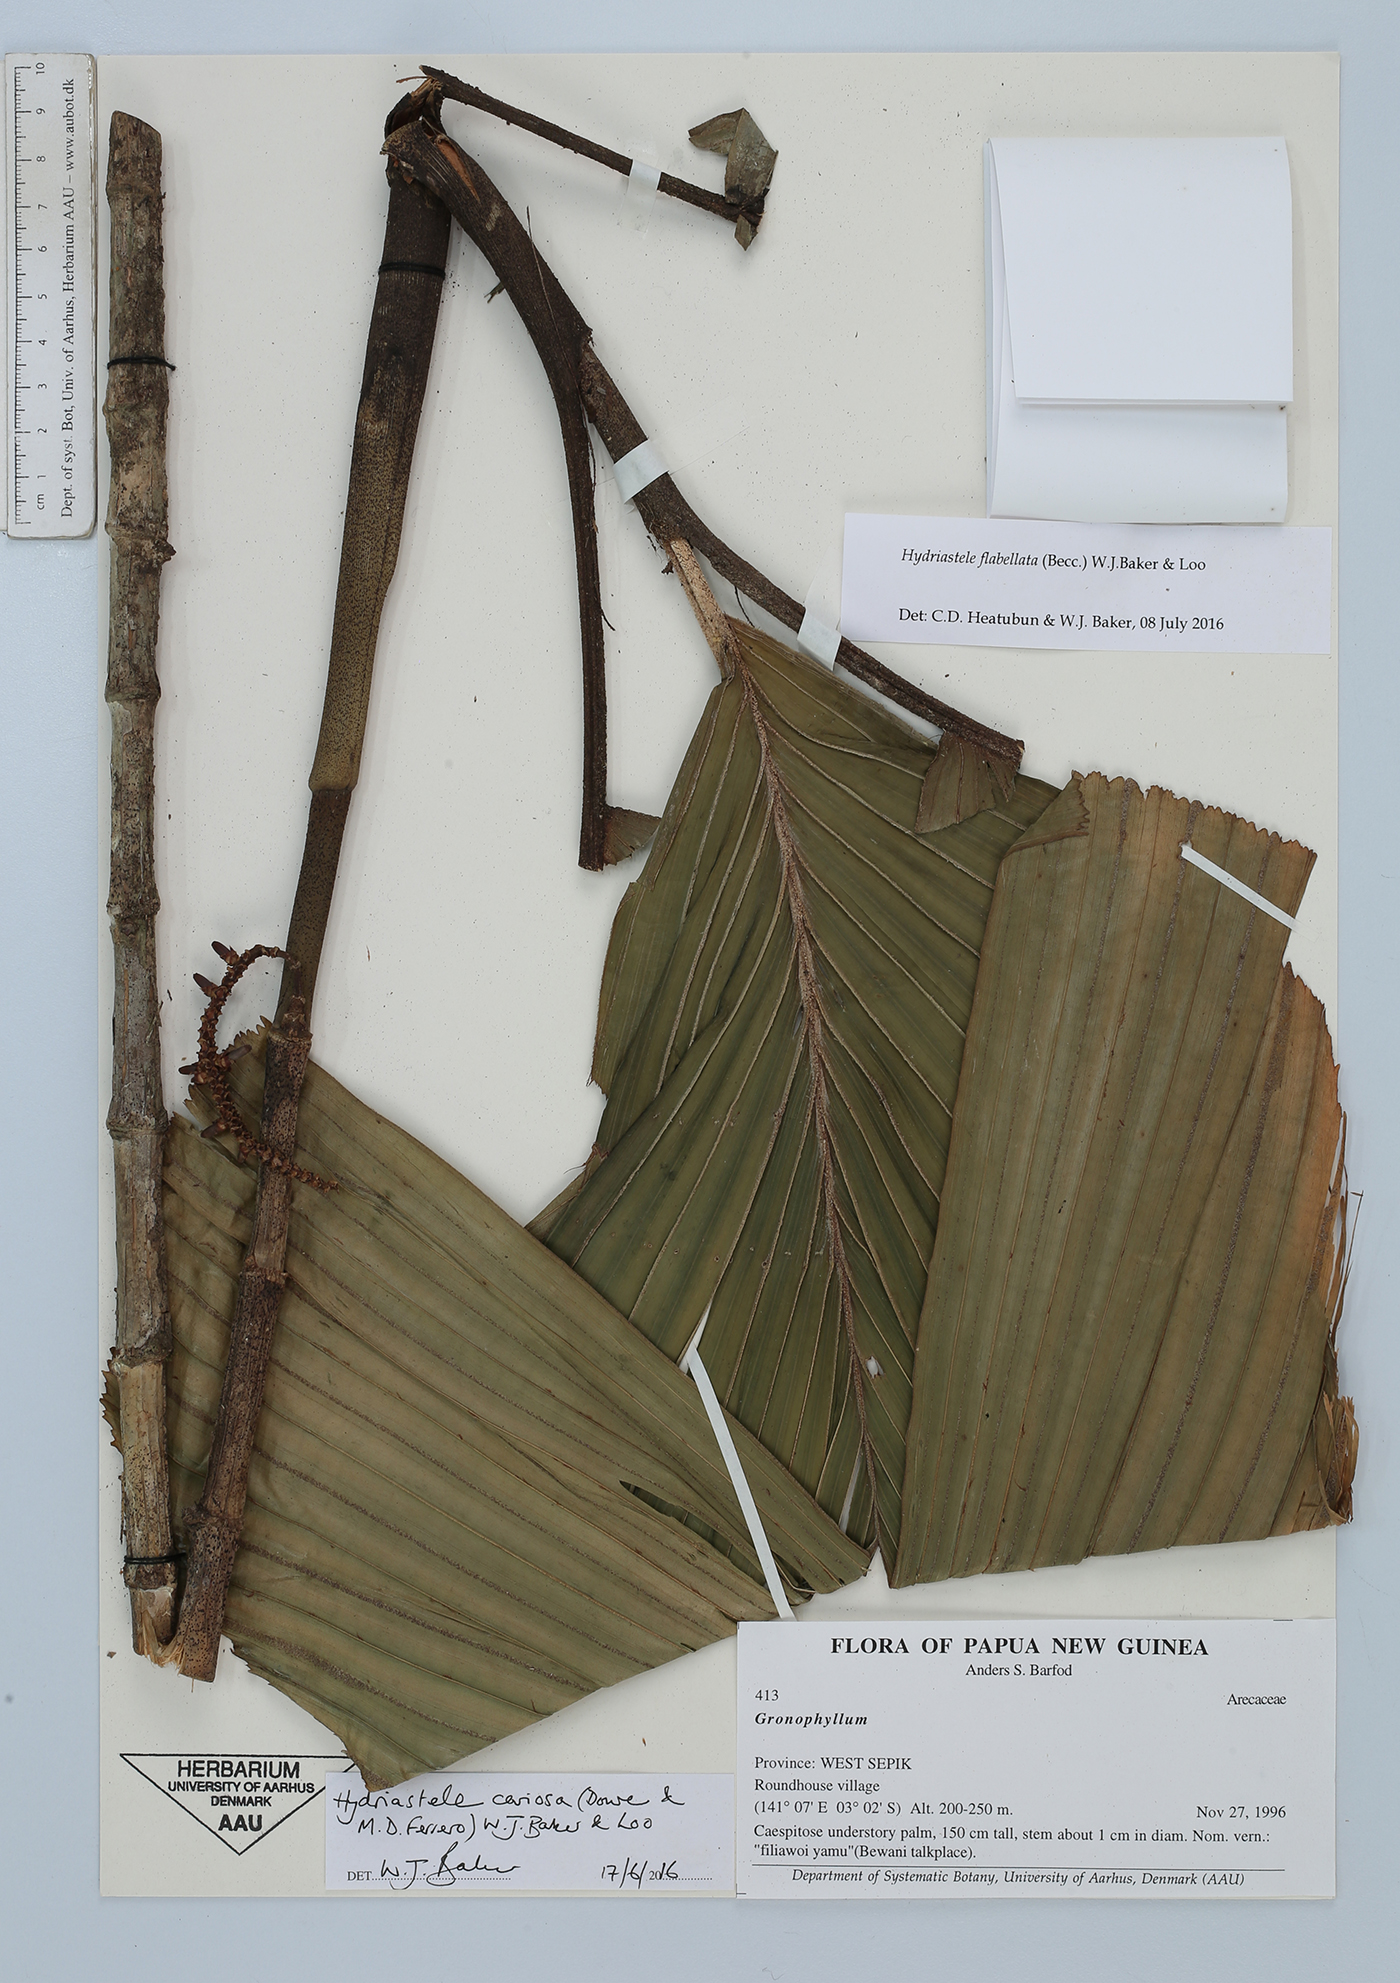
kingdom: Plantae
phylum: Tracheophyta
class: Liliopsida
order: Arecales
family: Arecaceae
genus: Hydriastele
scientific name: Hydriastele flabellata
